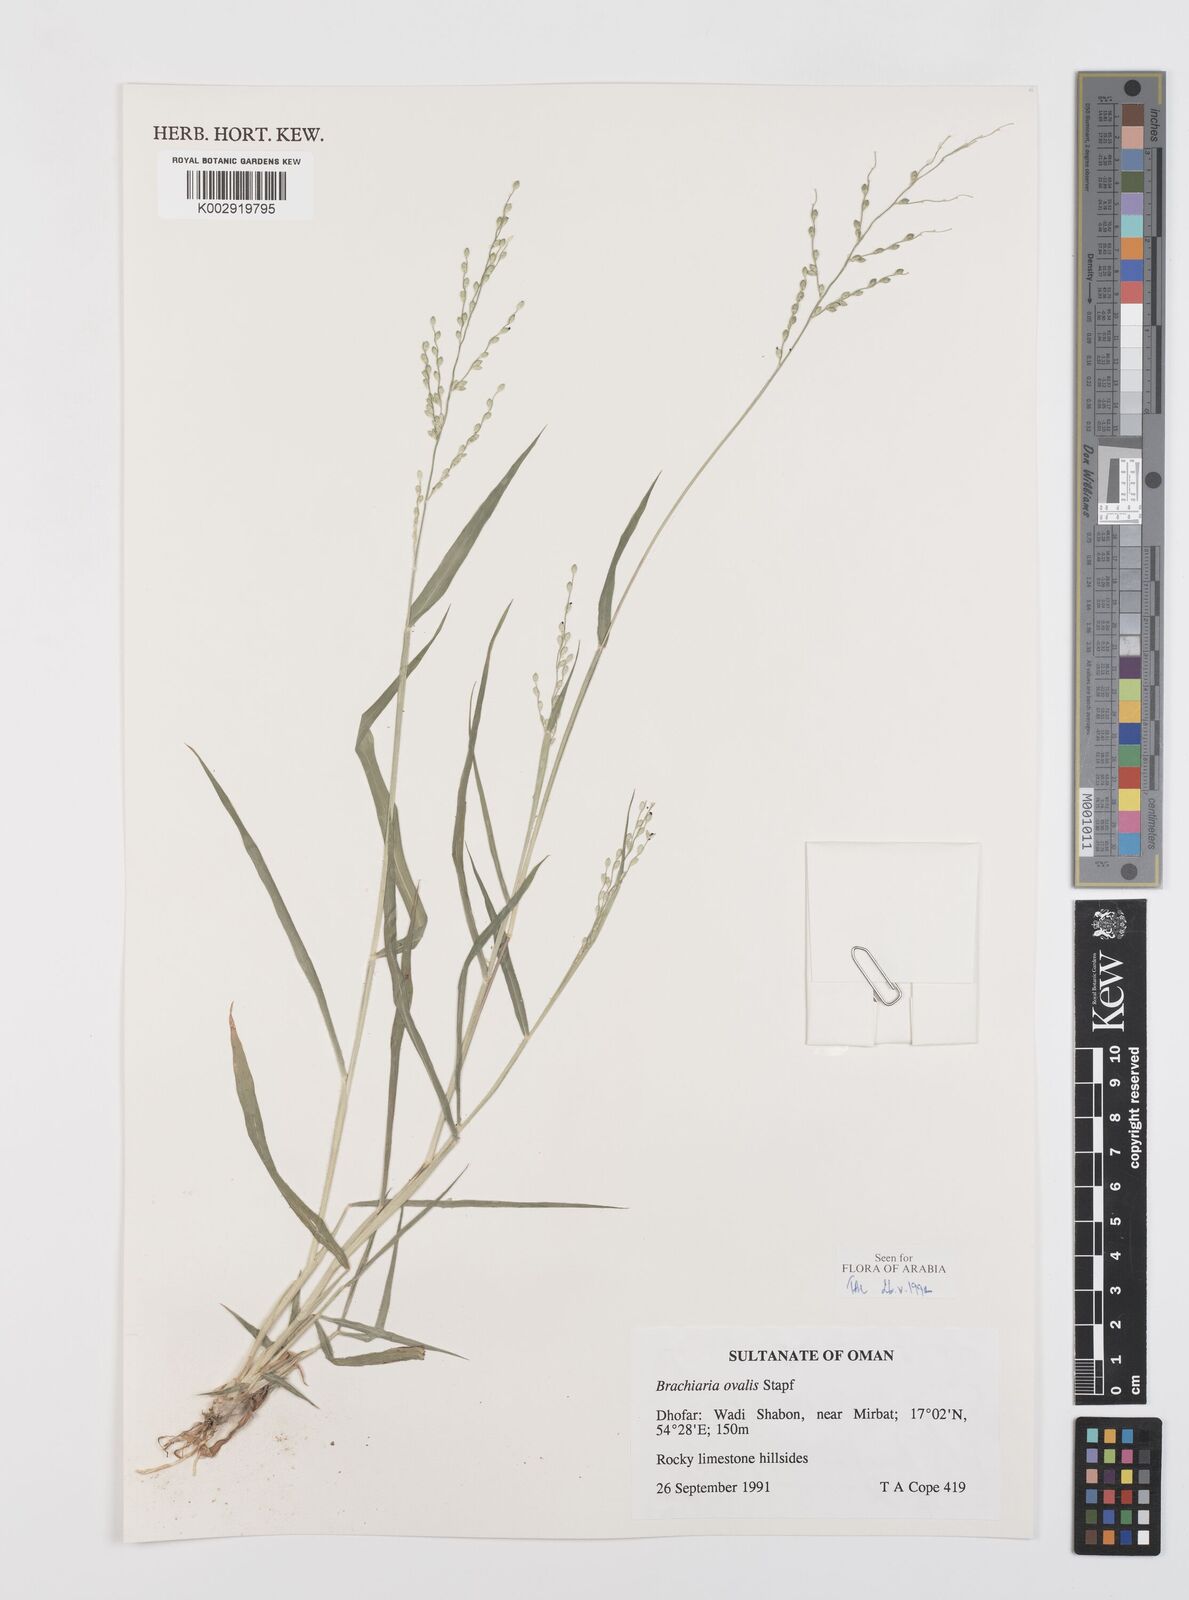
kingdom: Plantae
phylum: Tracheophyta
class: Liliopsida
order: Poales
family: Poaceae
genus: Urochloa
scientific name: Urochloa ovalis
